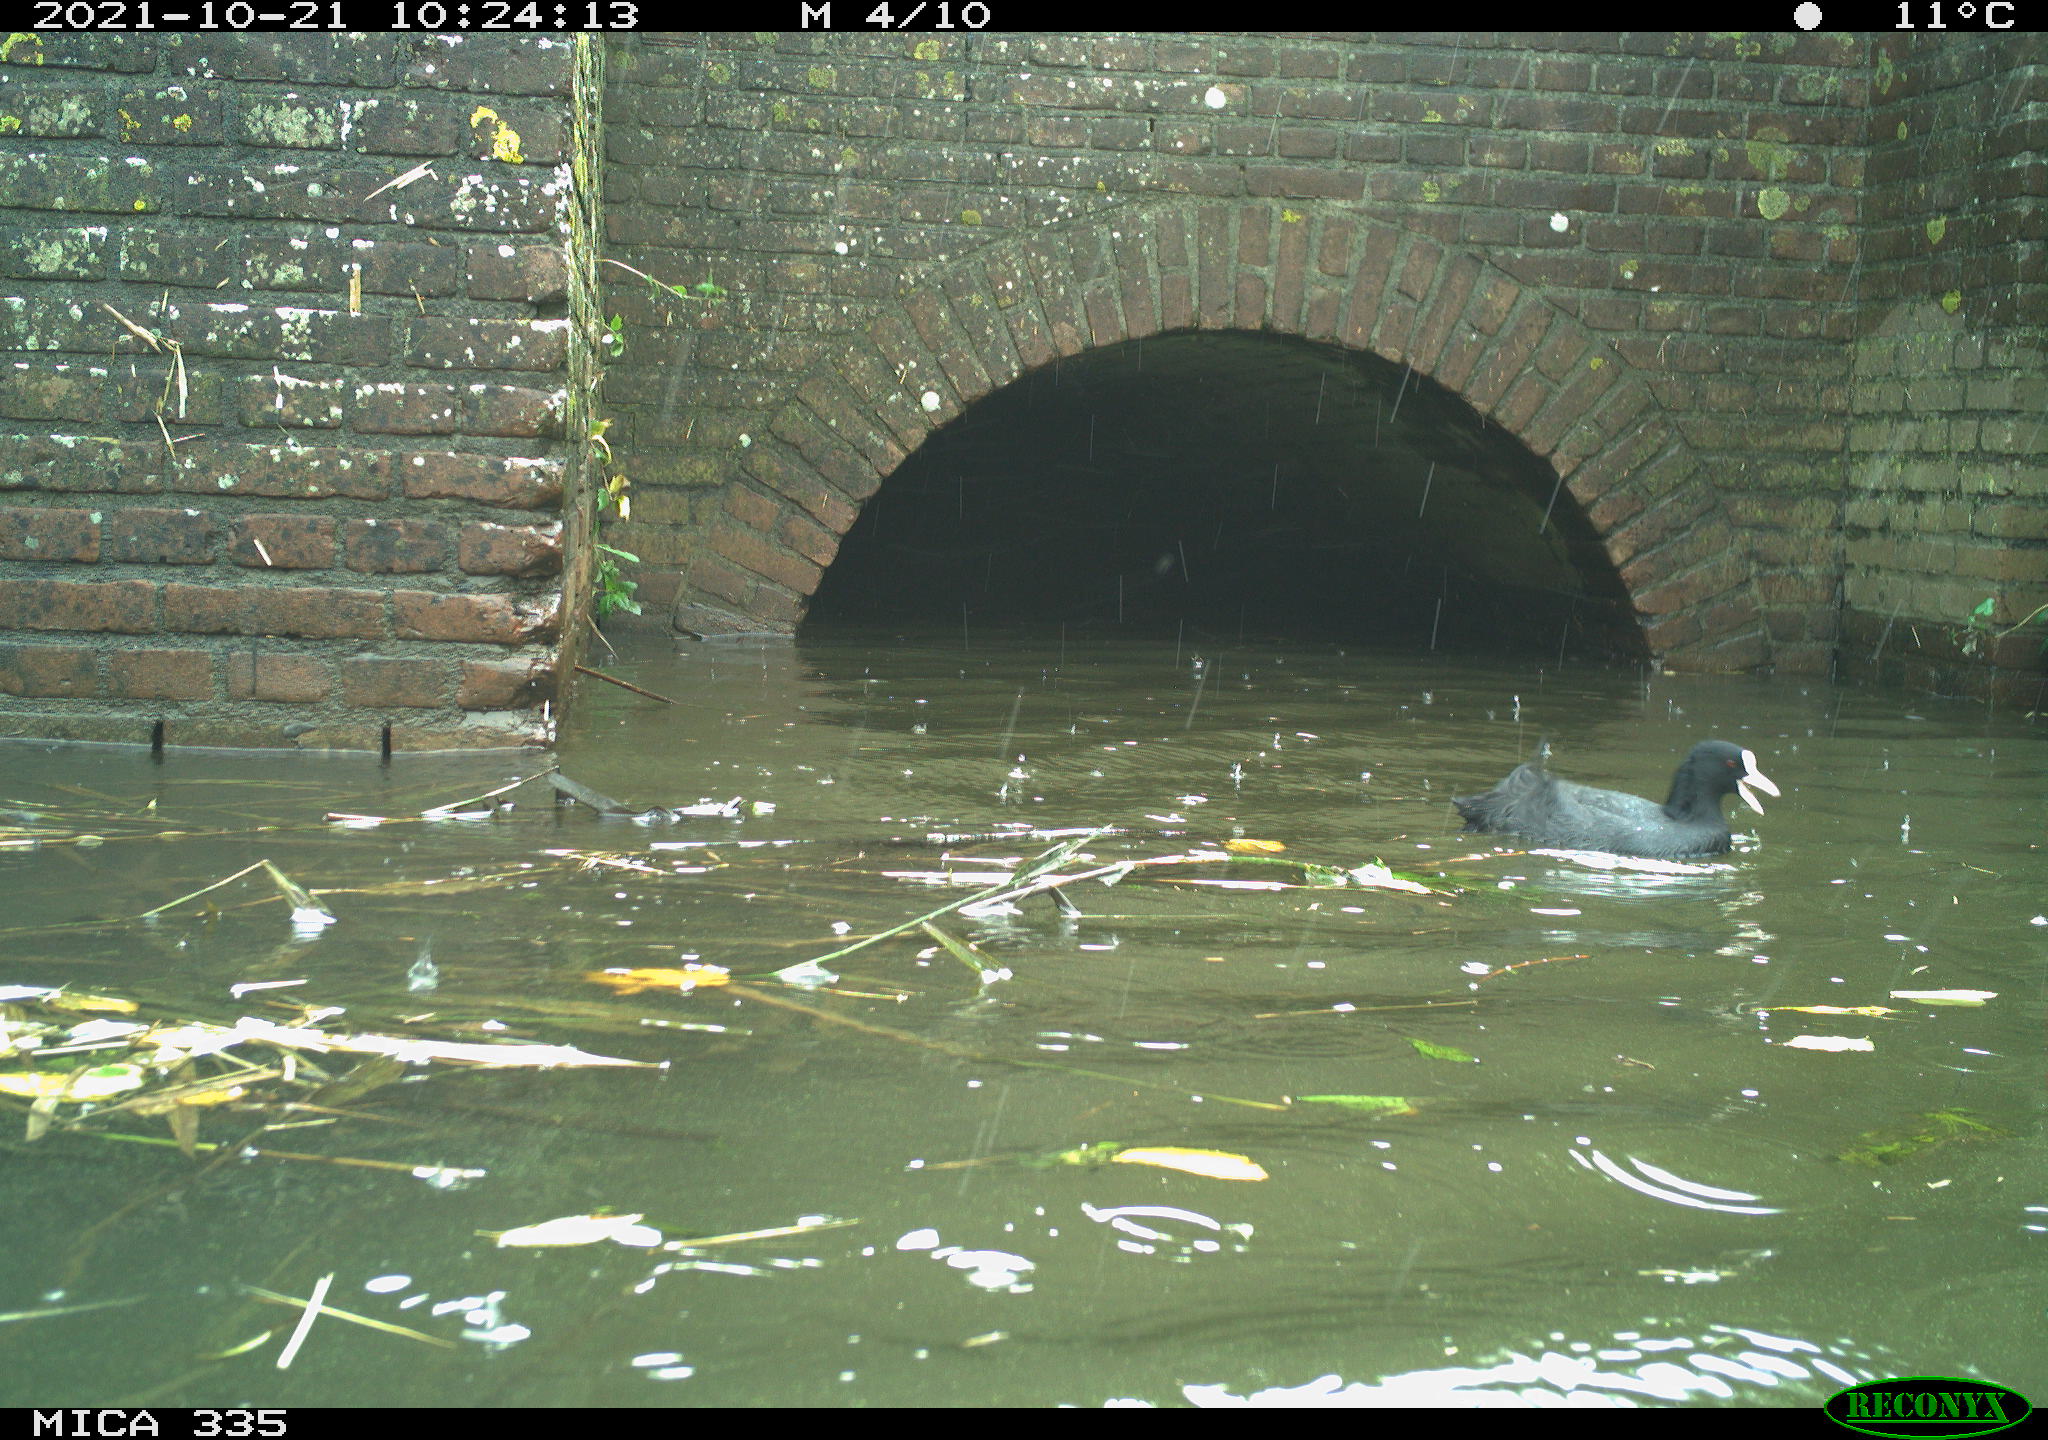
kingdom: Animalia
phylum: Chordata
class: Aves
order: Gruiformes
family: Rallidae
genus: Fulica
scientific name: Fulica atra
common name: Eurasian coot
